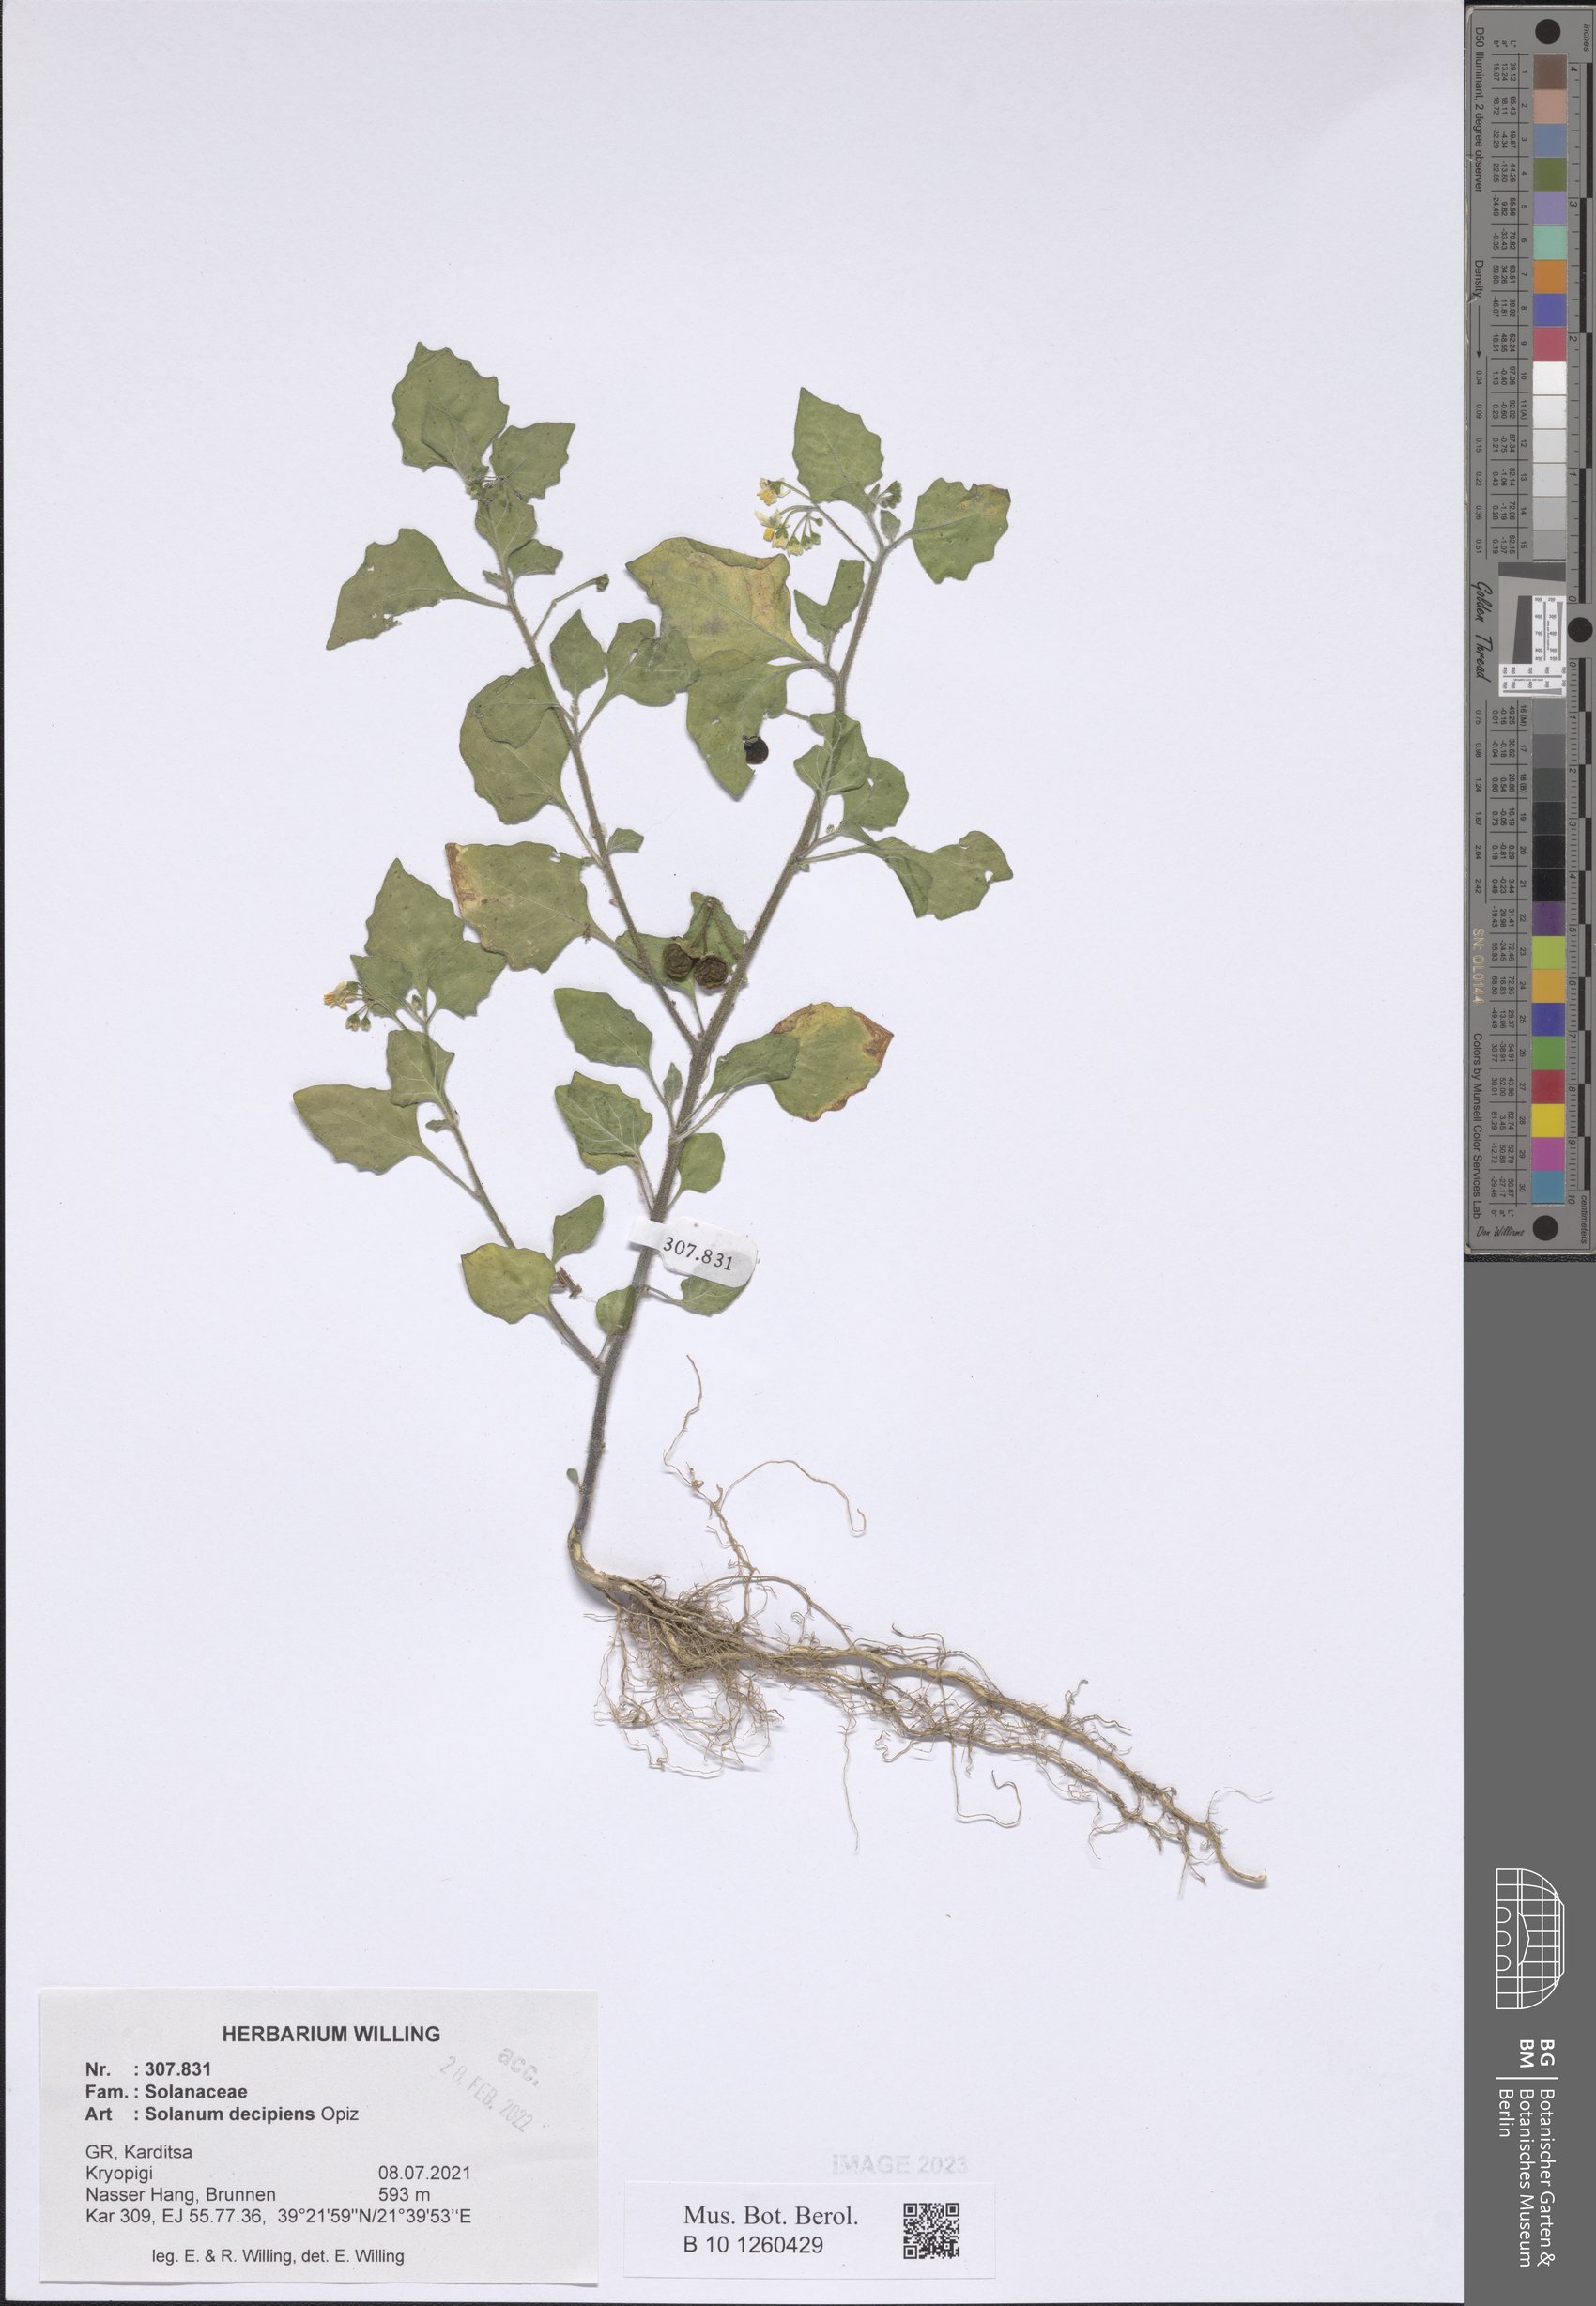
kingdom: Plantae
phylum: Tracheophyta
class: Magnoliopsida
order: Solanales
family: Solanaceae
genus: Solanum
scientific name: Solanum decipiens
